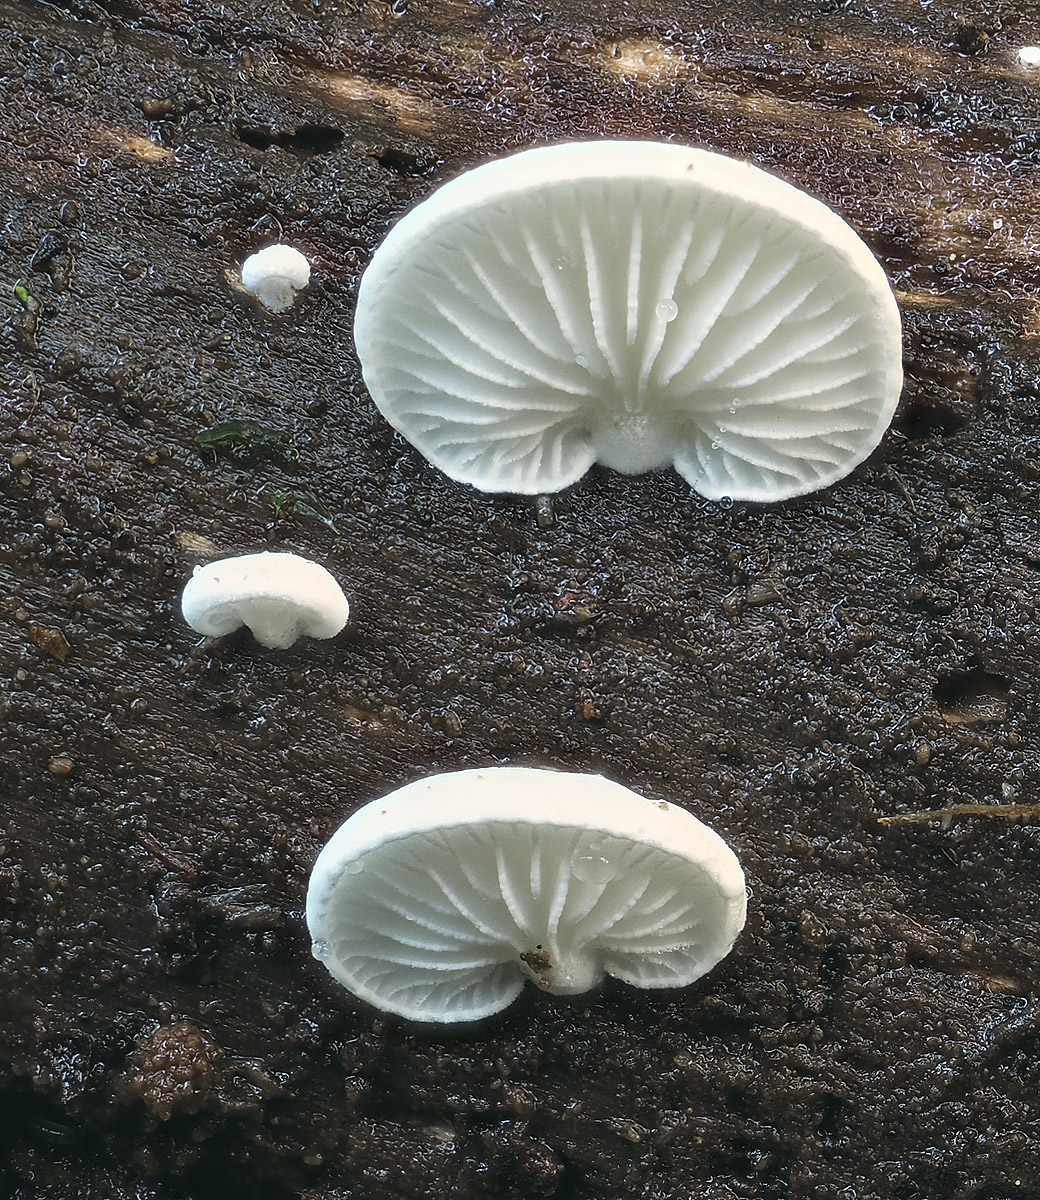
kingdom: Fungi
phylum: Basidiomycota
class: Agaricomycetes
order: Agaricales
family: Cyphellaceae
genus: Cheimonophyllum
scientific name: Cheimonophyllum
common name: vifteblad
